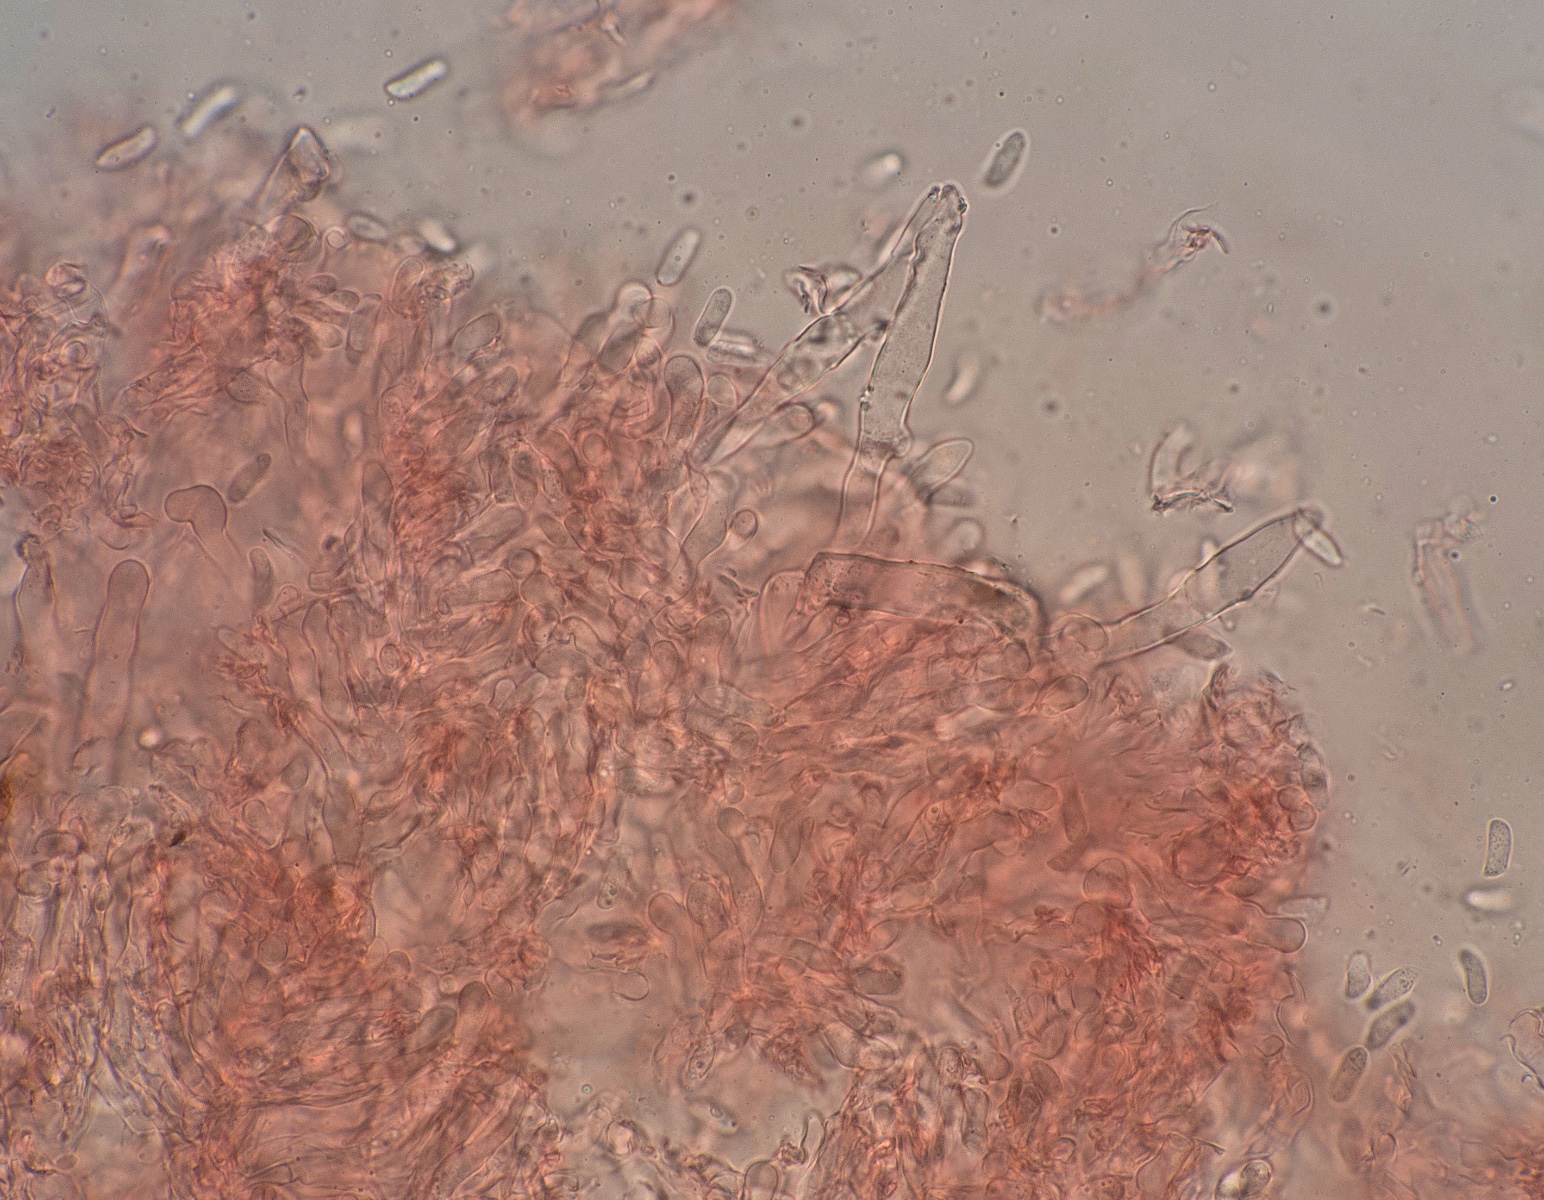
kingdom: Fungi
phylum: Basidiomycota
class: Agaricomycetes
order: Polyporales
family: Hyphodermataceae
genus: Hyphoderma
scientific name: Hyphoderma setigerum
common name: håret kalkskind
